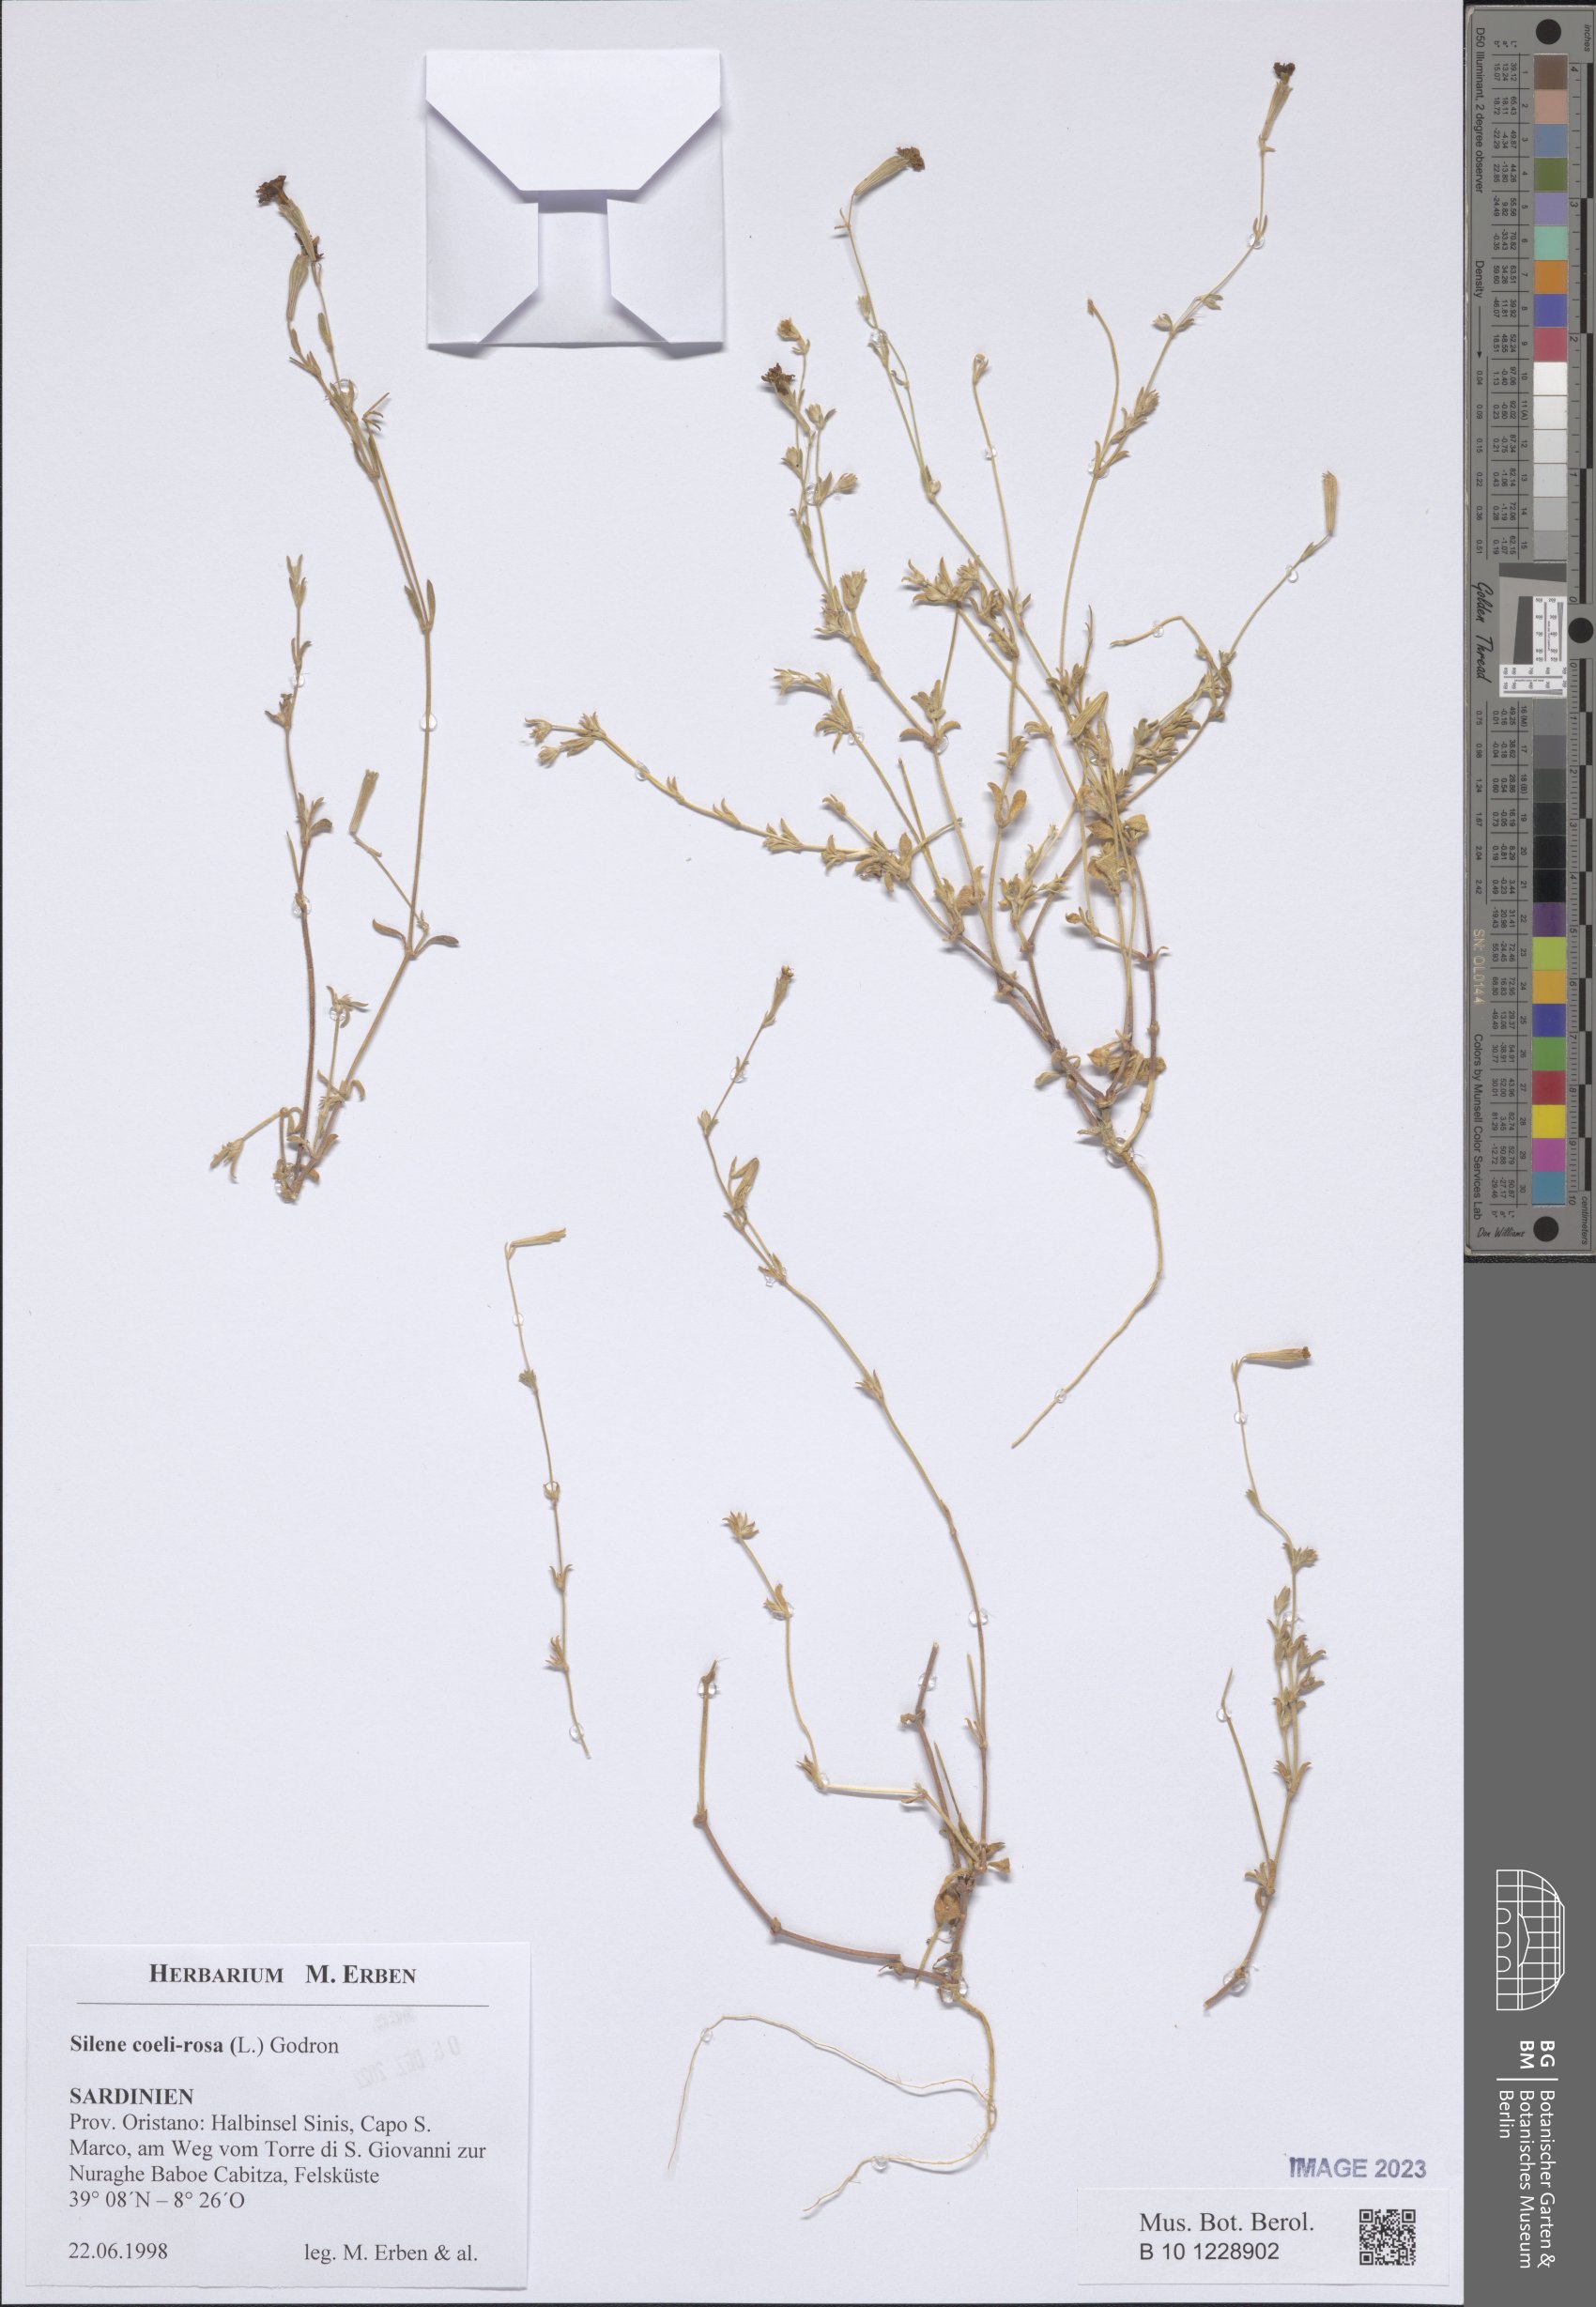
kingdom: Plantae
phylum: Tracheophyta
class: Magnoliopsida
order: Caryophyllales
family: Caryophyllaceae
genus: Eudianthe
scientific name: Eudianthe coeli-rosa
